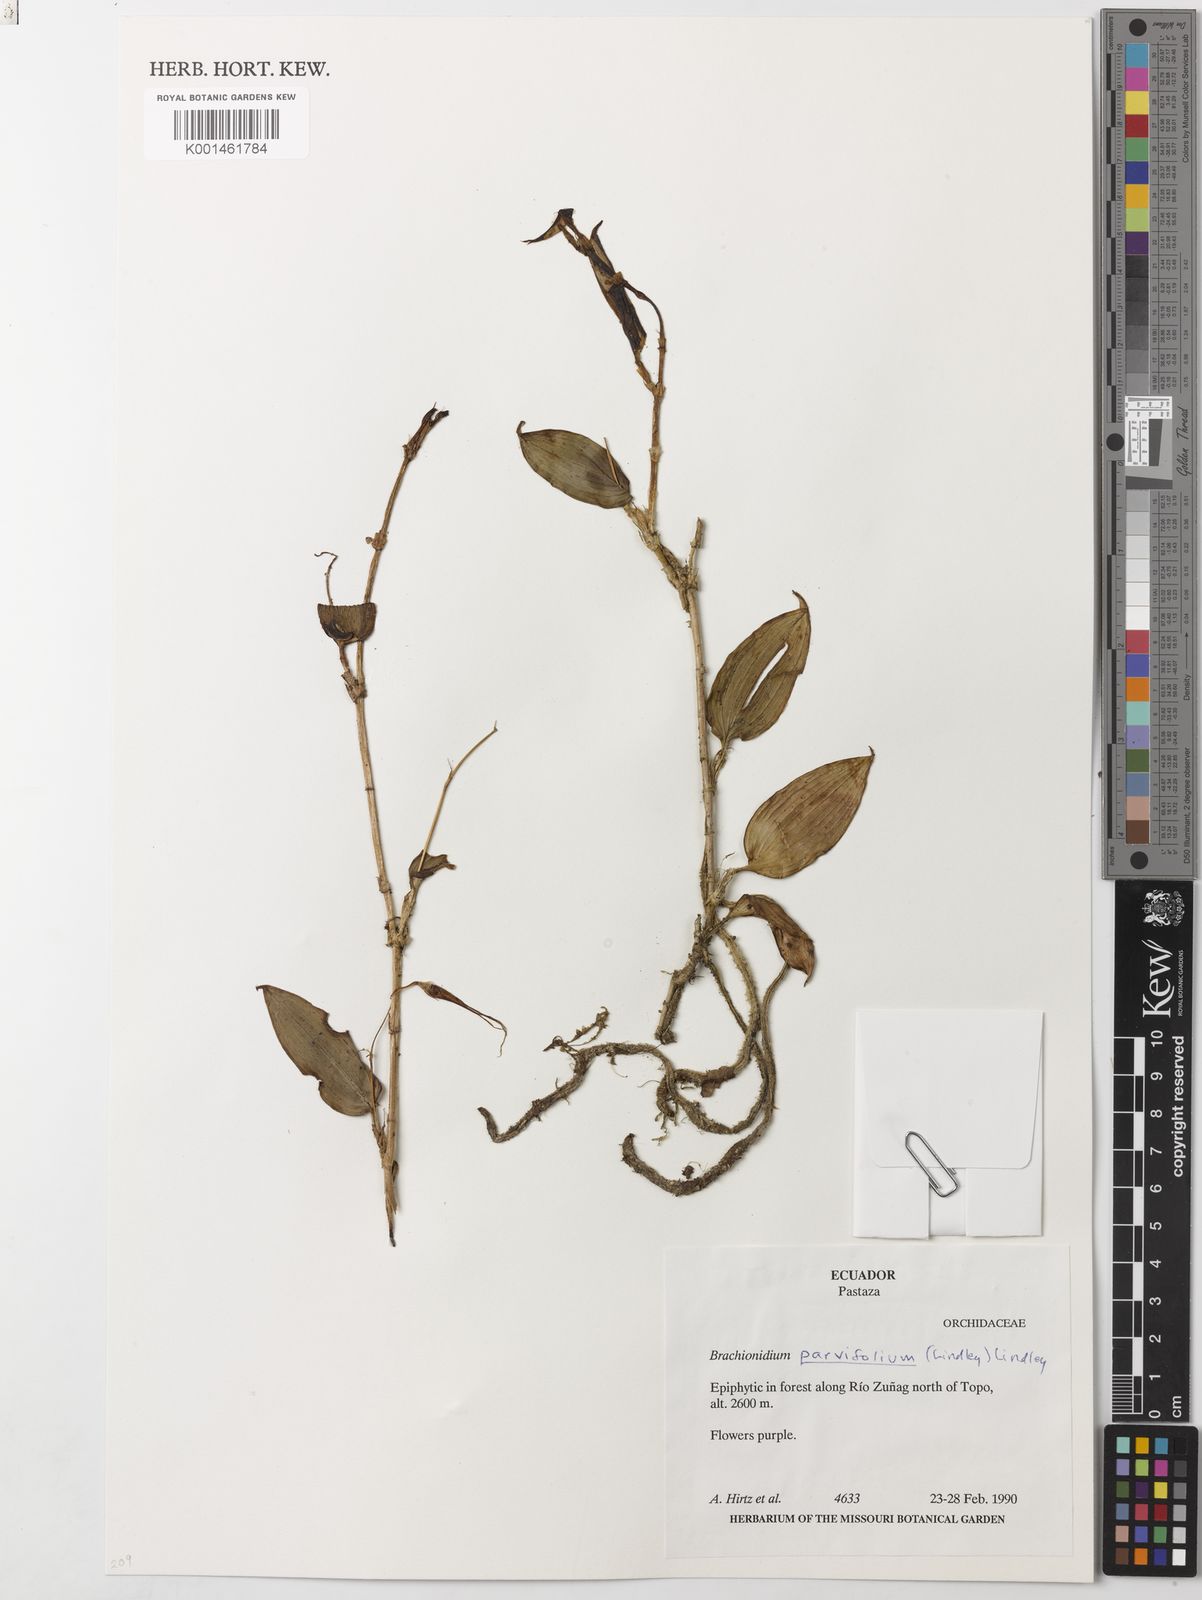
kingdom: Plantae
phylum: Tracheophyta
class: Liliopsida
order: Asparagales
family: Orchidaceae
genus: Brachionidium
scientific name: Brachionidium parvifolium
